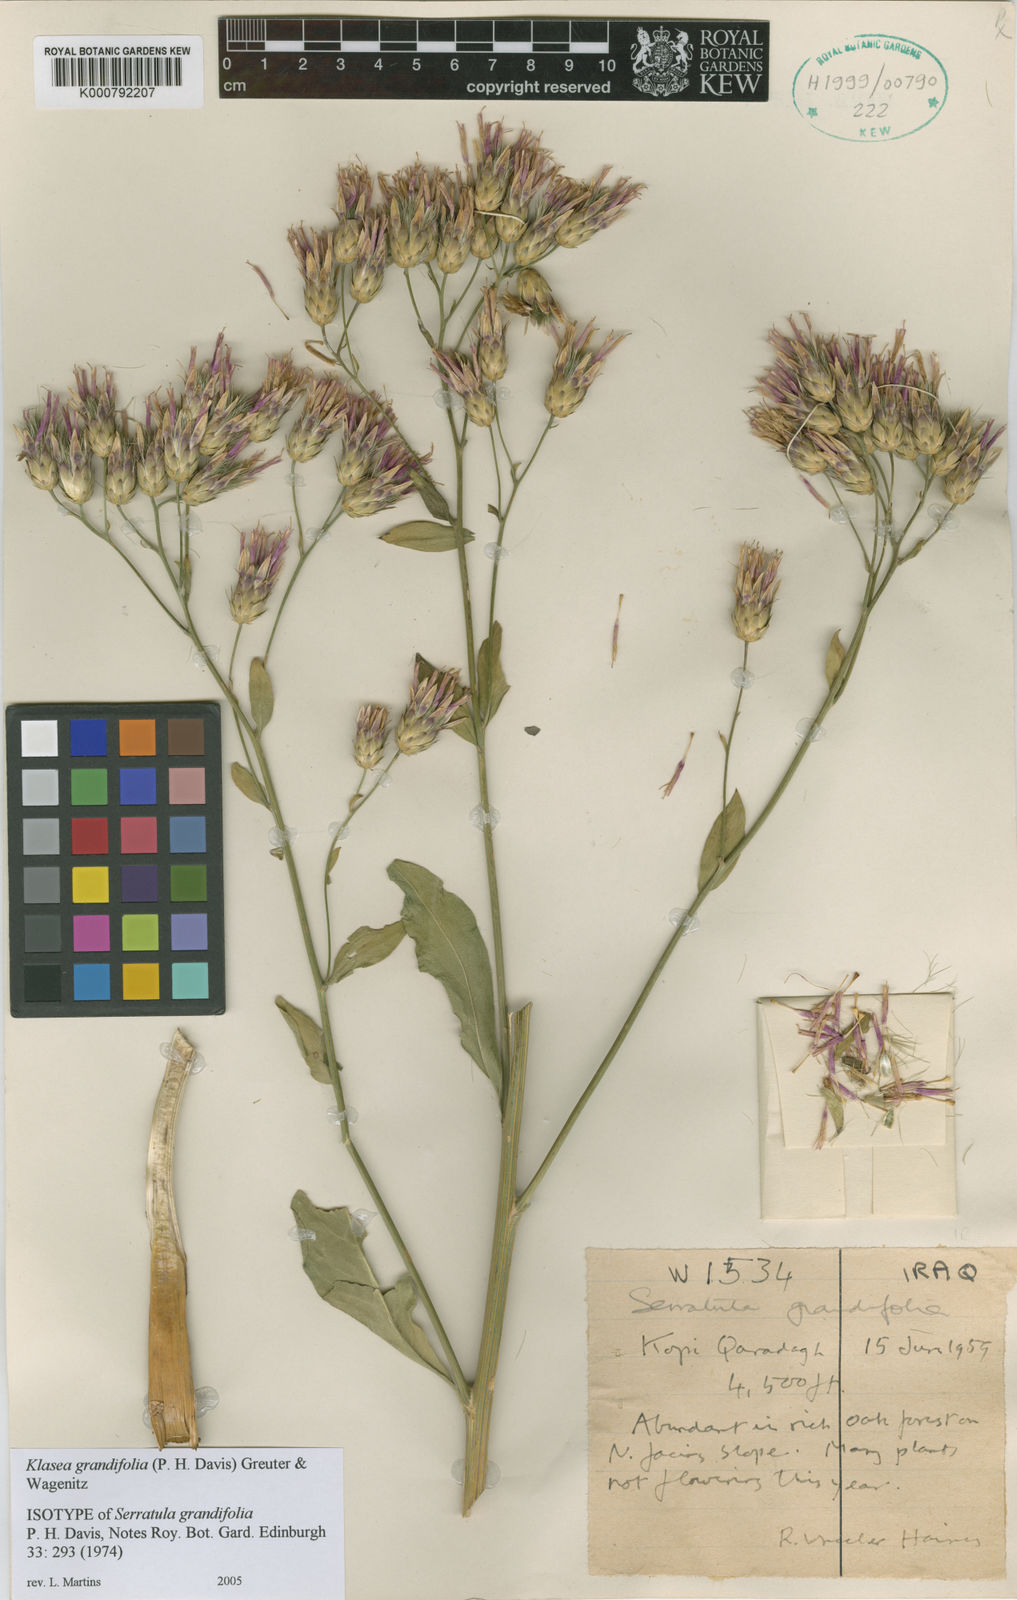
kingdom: Plantae
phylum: Tracheophyta
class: Magnoliopsida
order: Asterales
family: Asteraceae
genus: Serratula
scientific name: Serratula
